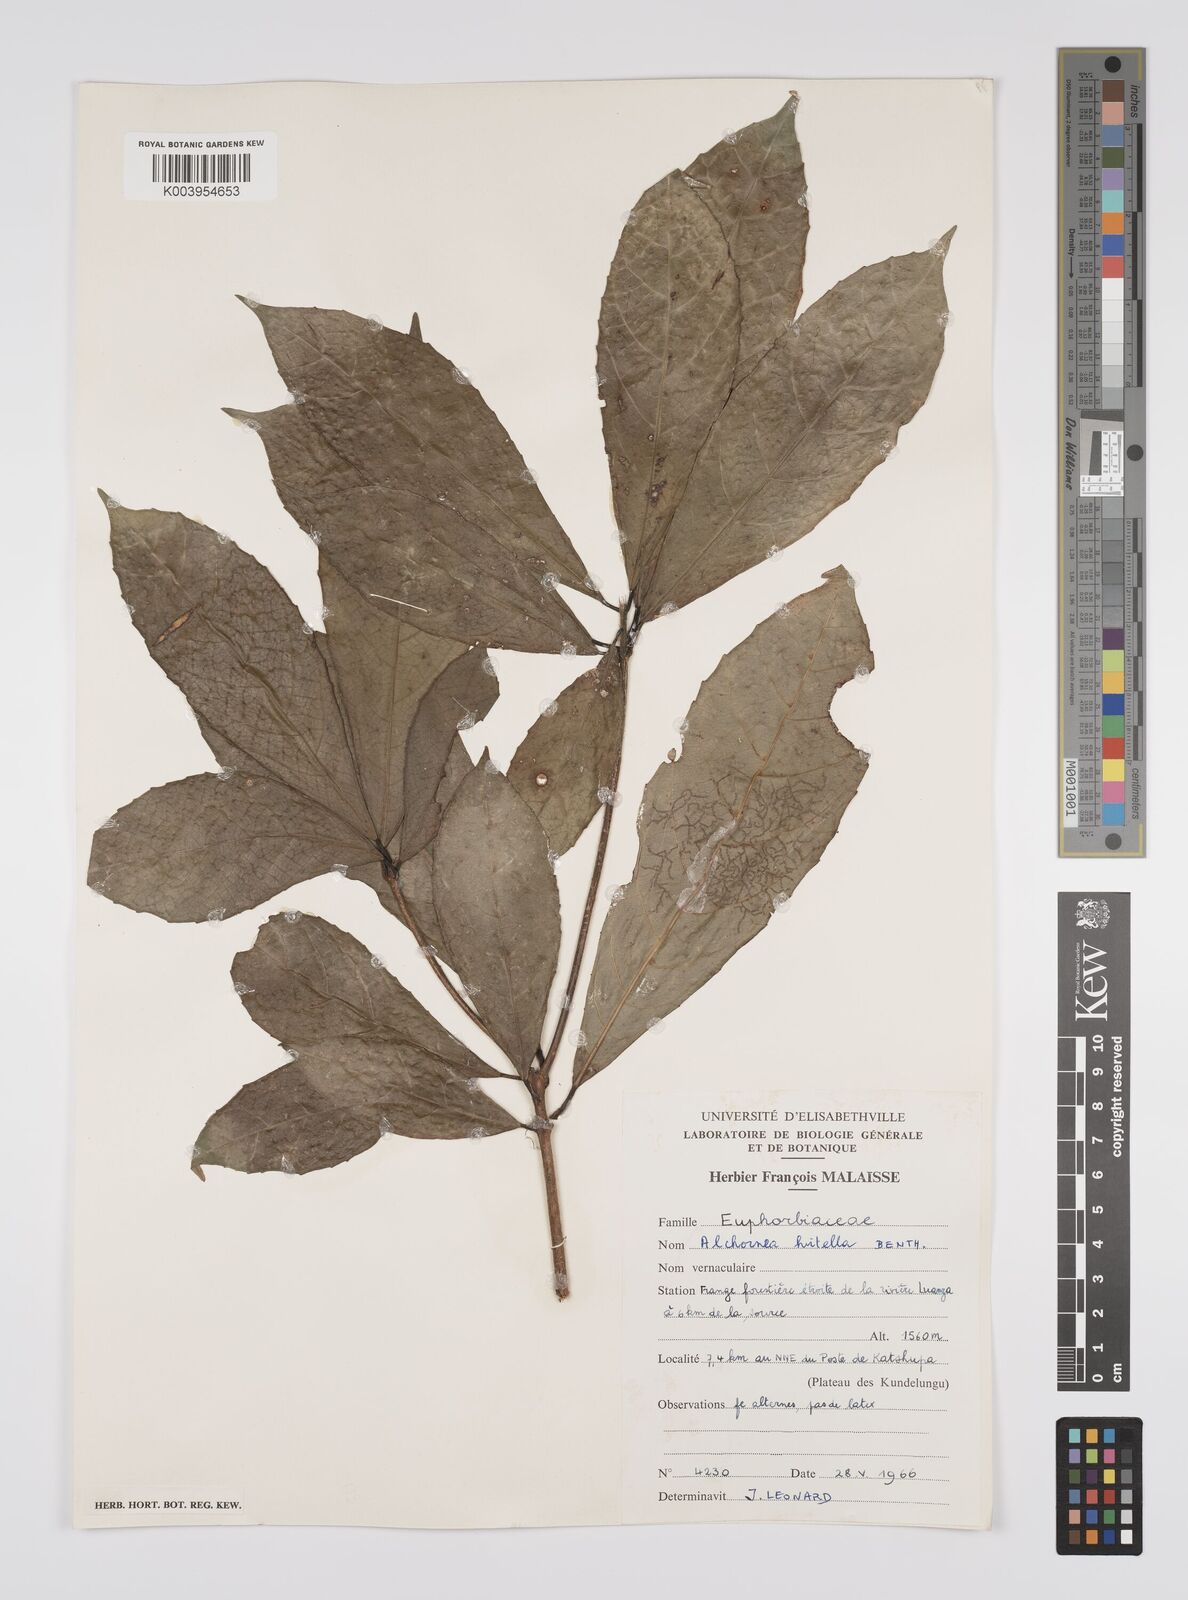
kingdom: Plantae
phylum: Tracheophyta
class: Magnoliopsida
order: Malpighiales
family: Euphorbiaceae
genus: Alchornea
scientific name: Alchornea hirtella
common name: Forest bead-string
